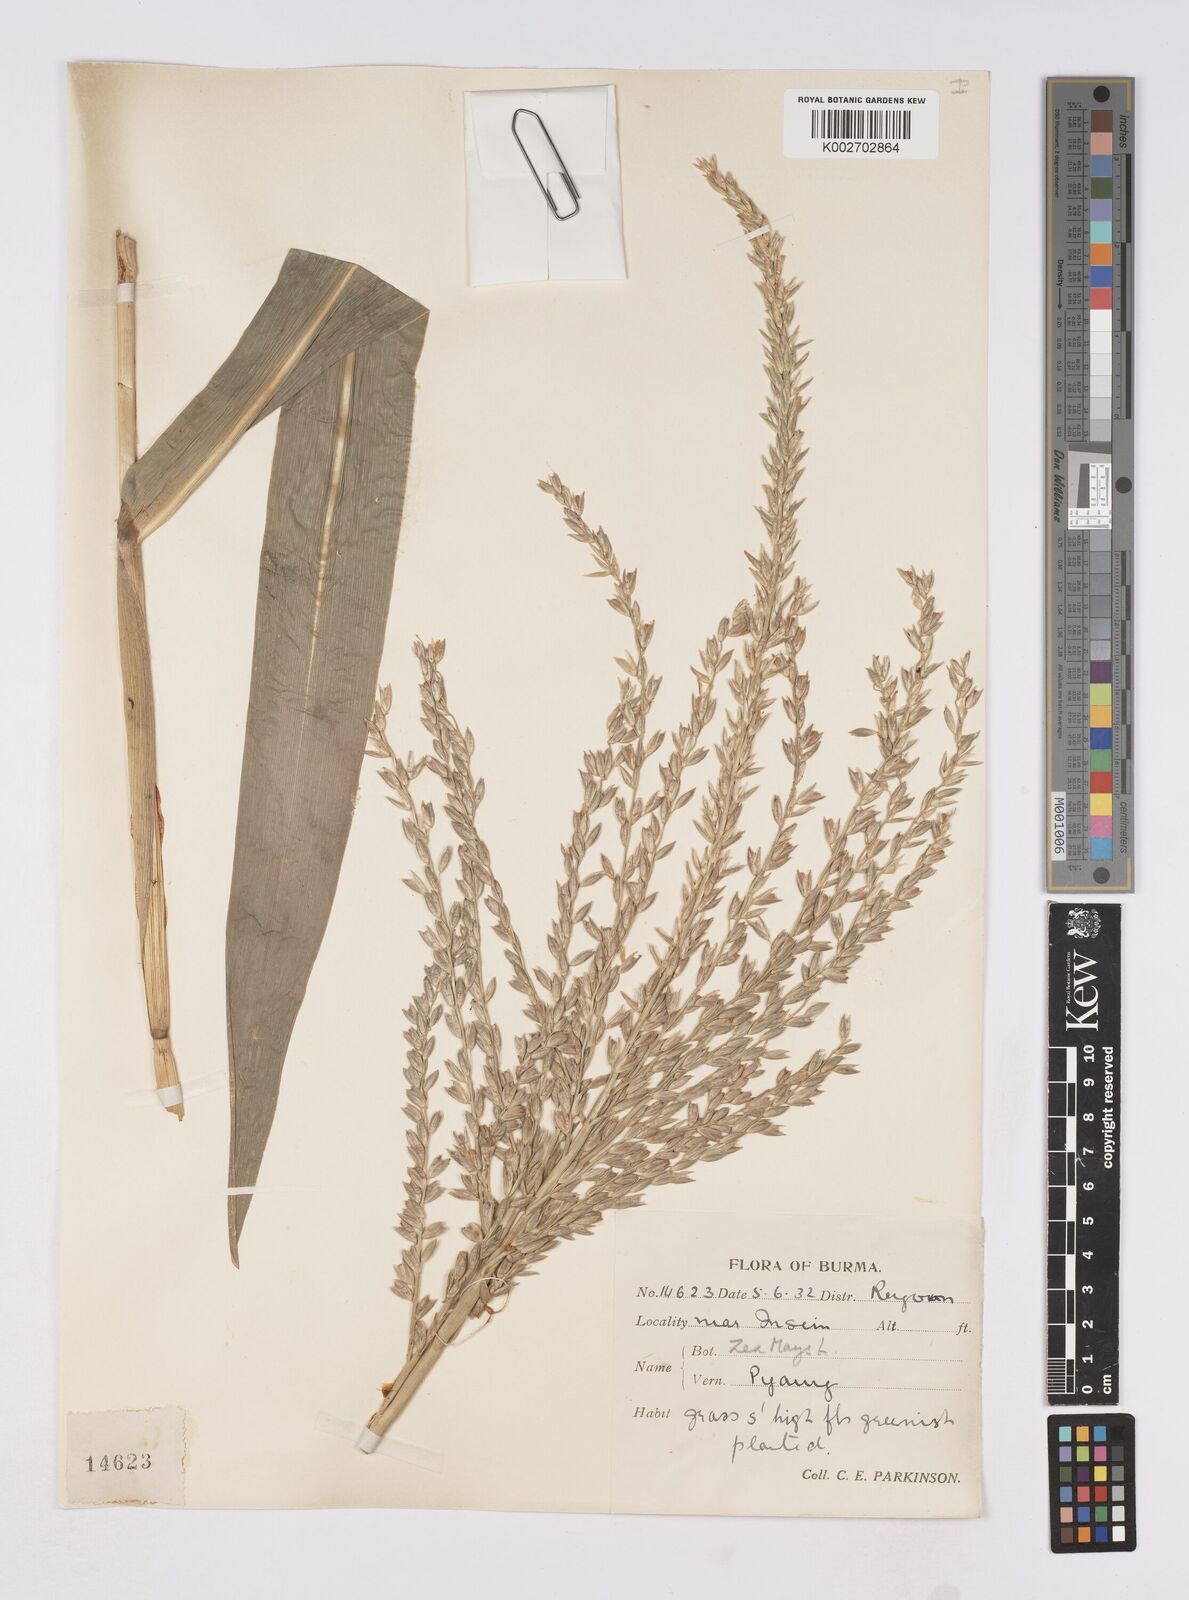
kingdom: Plantae
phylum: Tracheophyta
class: Liliopsida
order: Poales
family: Poaceae
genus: Zea
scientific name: Zea mays
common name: Maize
